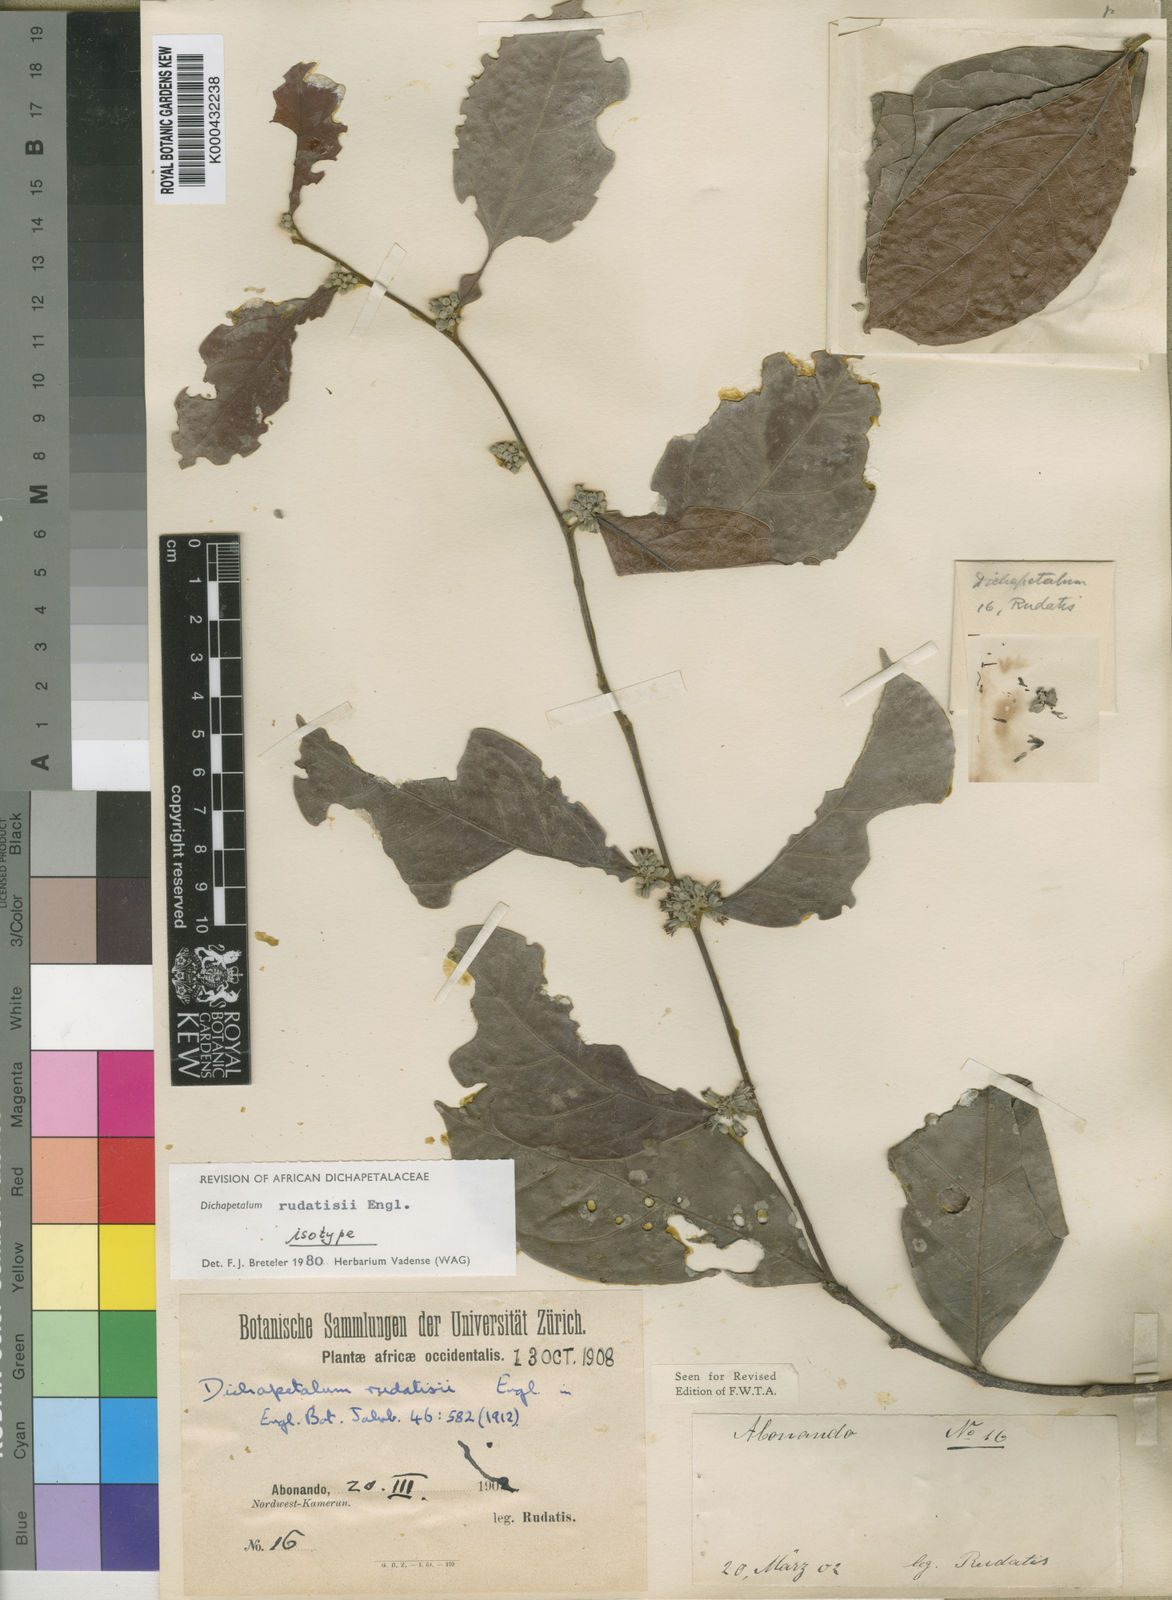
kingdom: Plantae
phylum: Tracheophyta
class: Magnoliopsida
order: Malpighiales
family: Dichapetalaceae
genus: Dichapetalum
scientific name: Dichapetalum rudatisii
